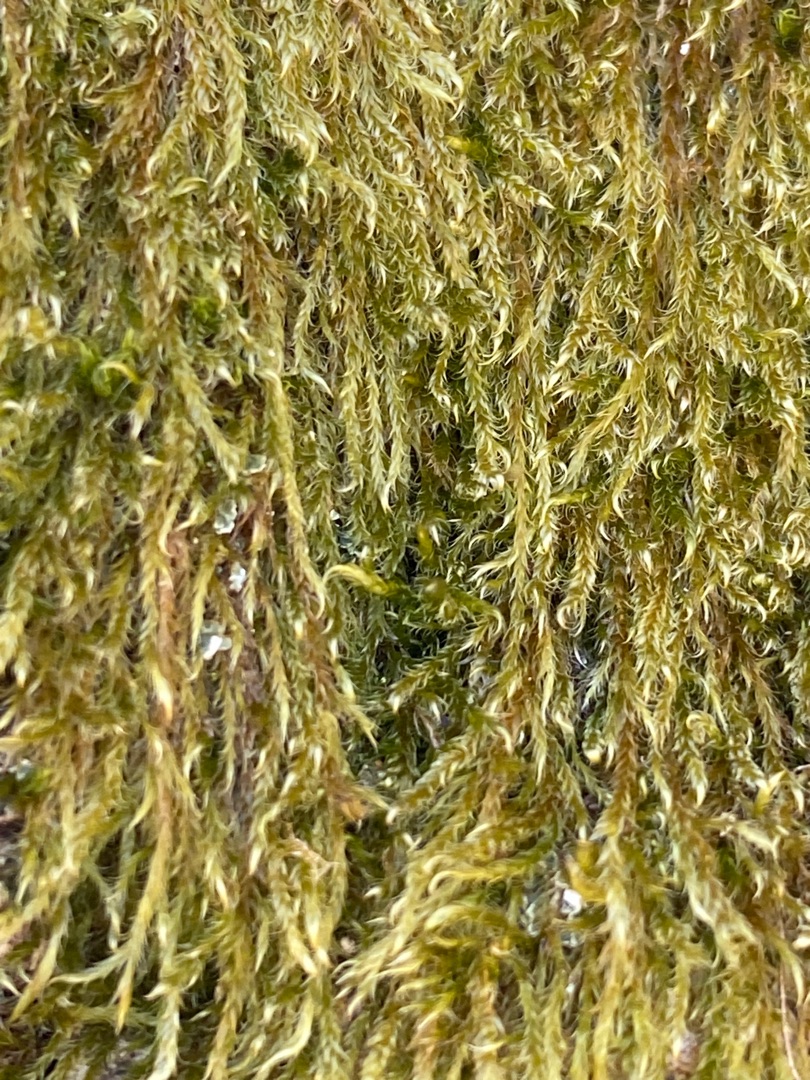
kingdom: Plantae
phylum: Bryophyta
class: Bryopsida
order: Hypnales
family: Hypnaceae
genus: Hypnum
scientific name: Hypnum
